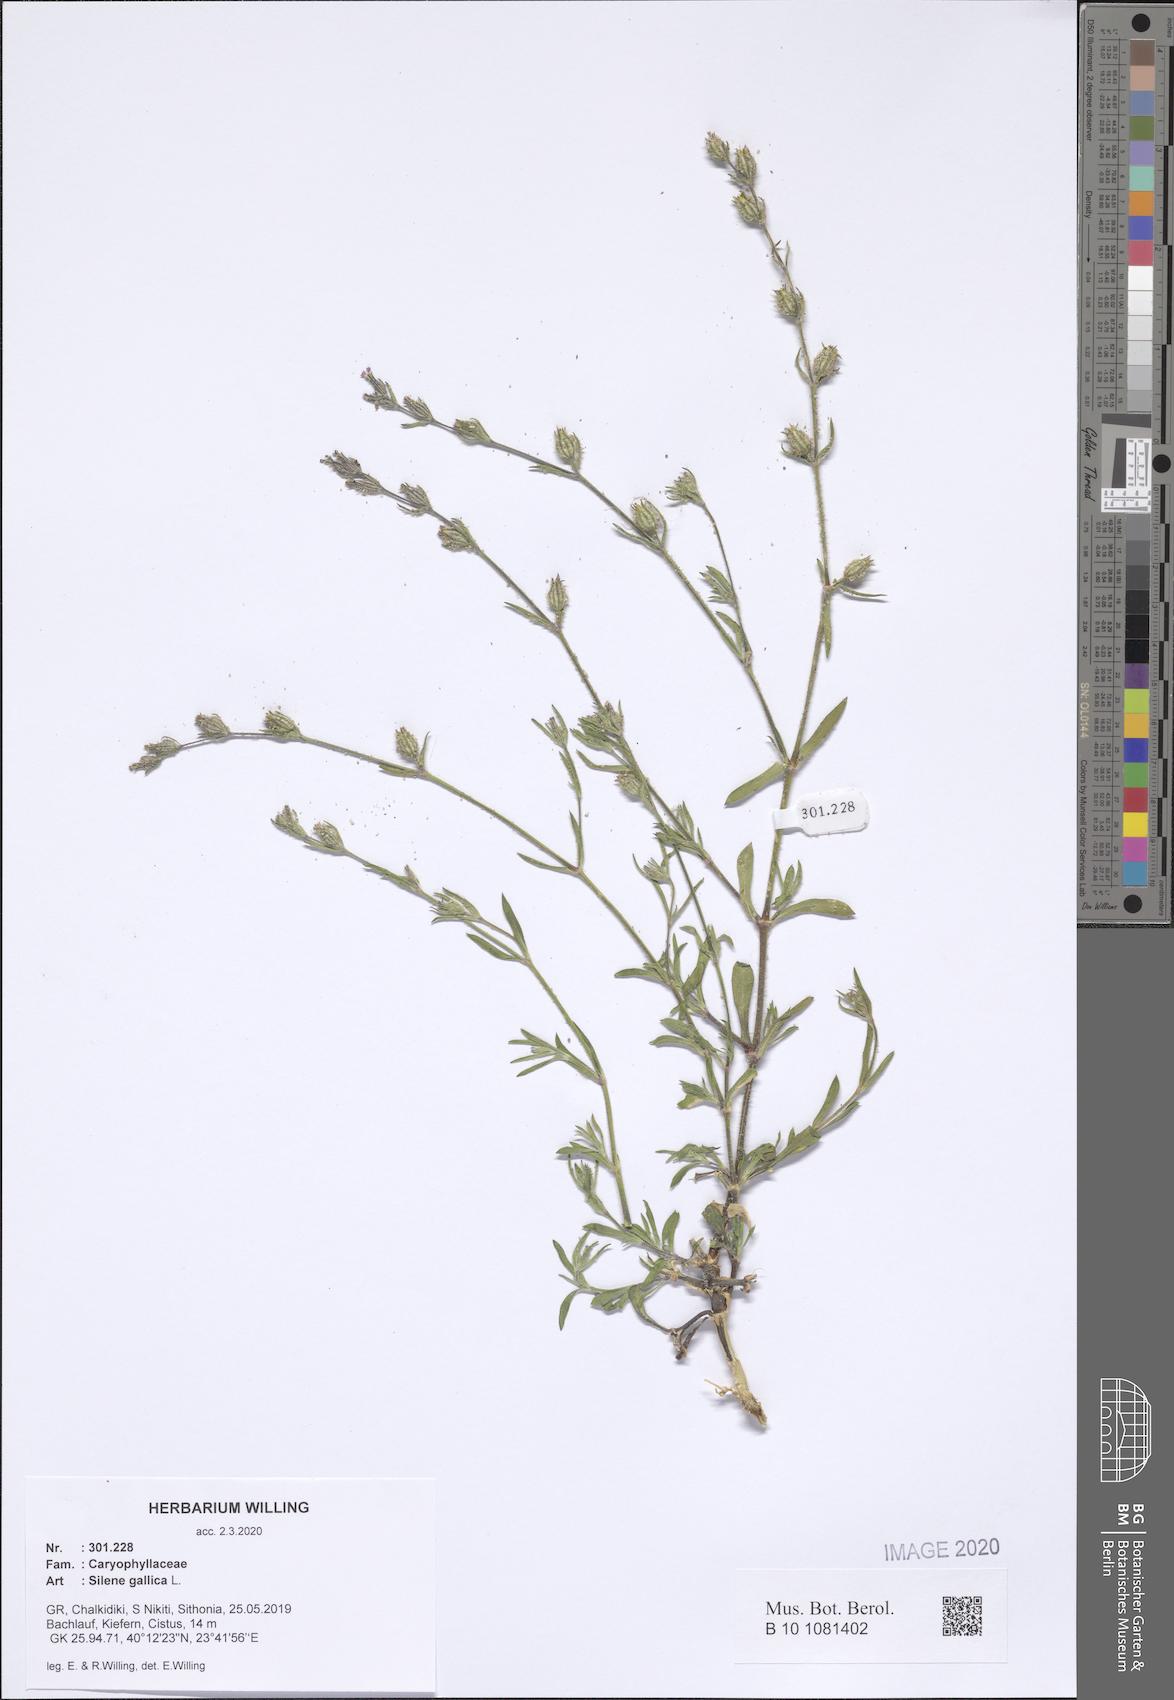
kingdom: Plantae
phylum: Tracheophyta
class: Magnoliopsida
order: Caryophyllales
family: Caryophyllaceae
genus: Silene
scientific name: Silene gallica
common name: Small-flowered catchfly
